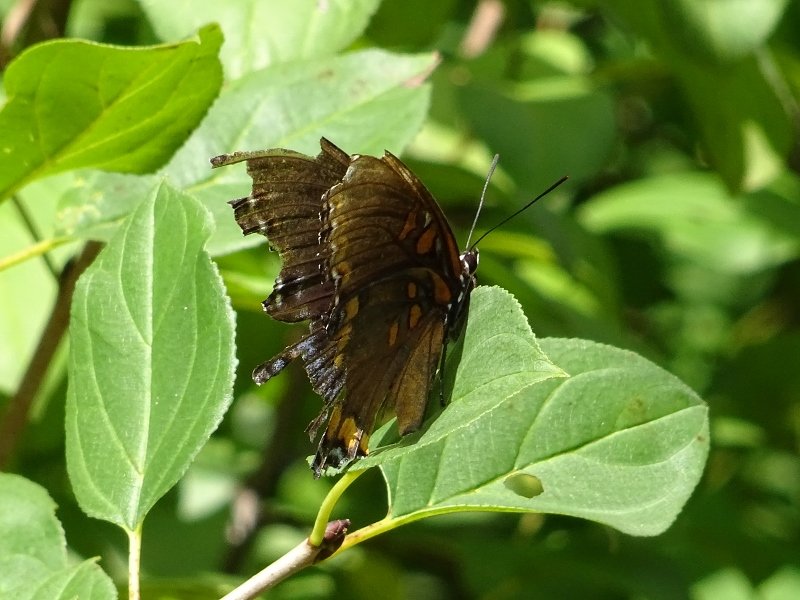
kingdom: Animalia
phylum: Arthropoda
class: Insecta
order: Lepidoptera
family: Nymphalidae
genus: Limenitis
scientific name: Limenitis astyanax
